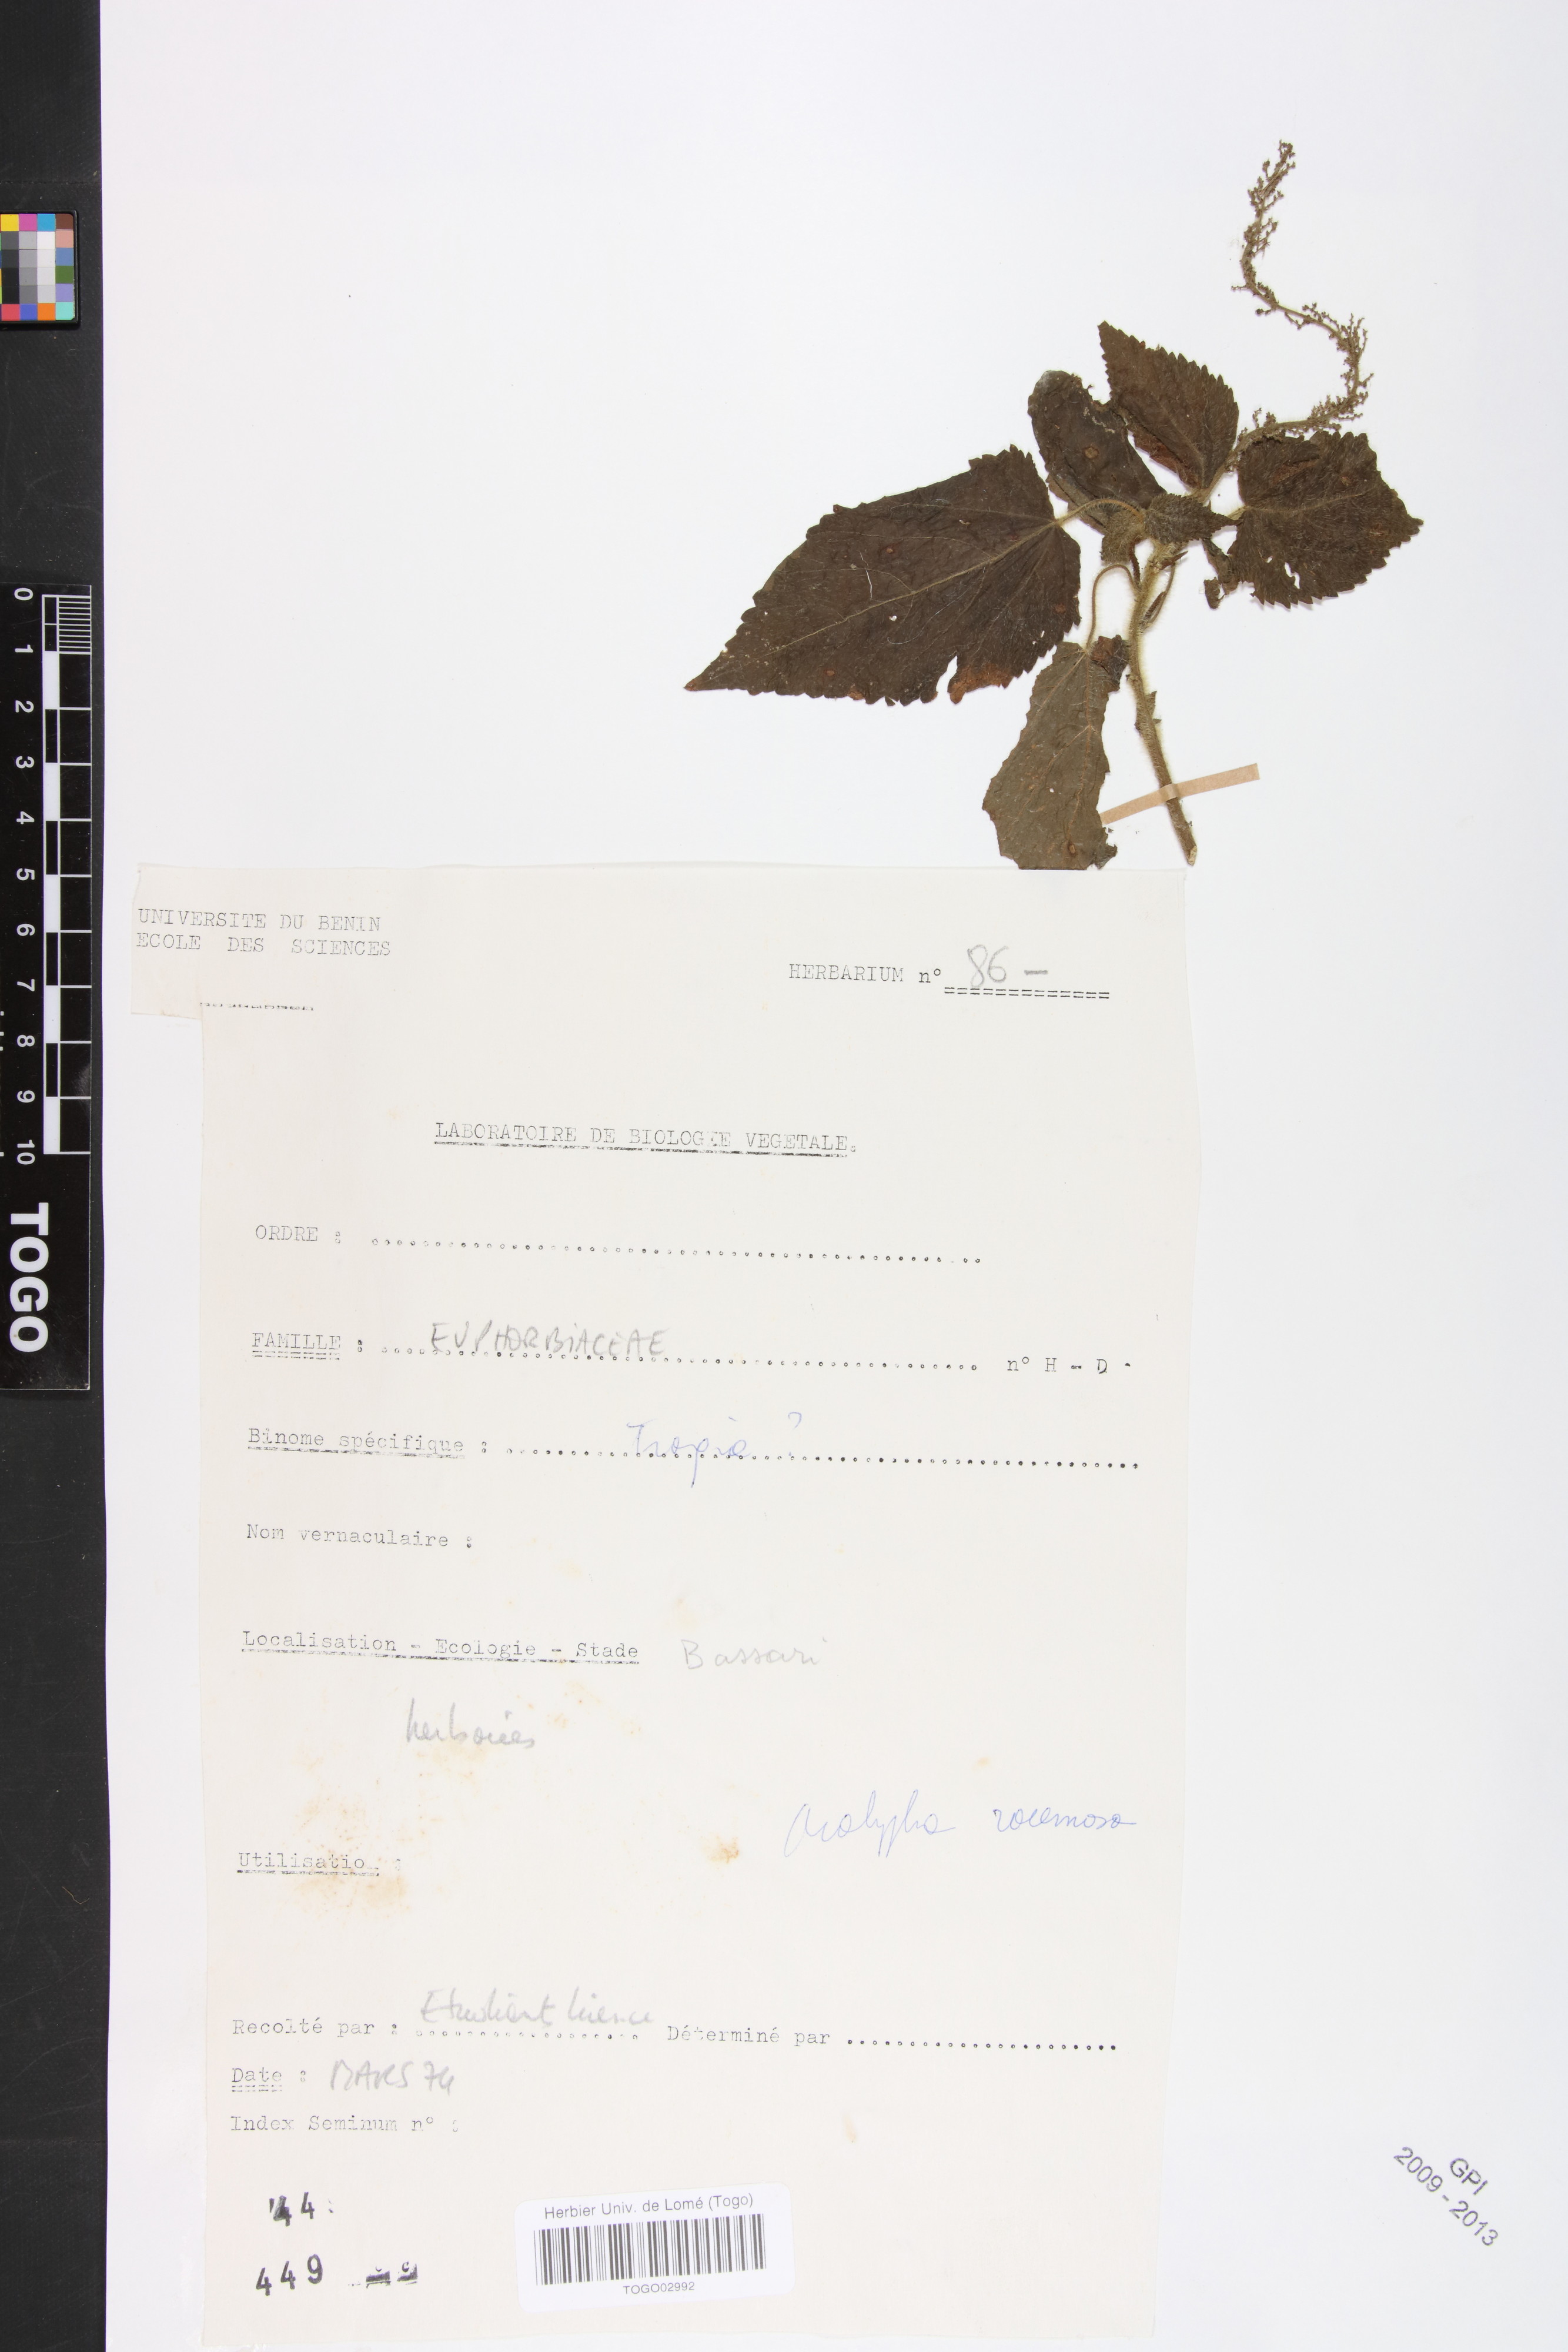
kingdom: Plantae
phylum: Tracheophyta
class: Magnoliopsida
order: Malpighiales
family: Euphorbiaceae
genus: Acalypha
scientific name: Acalypha paniculata
